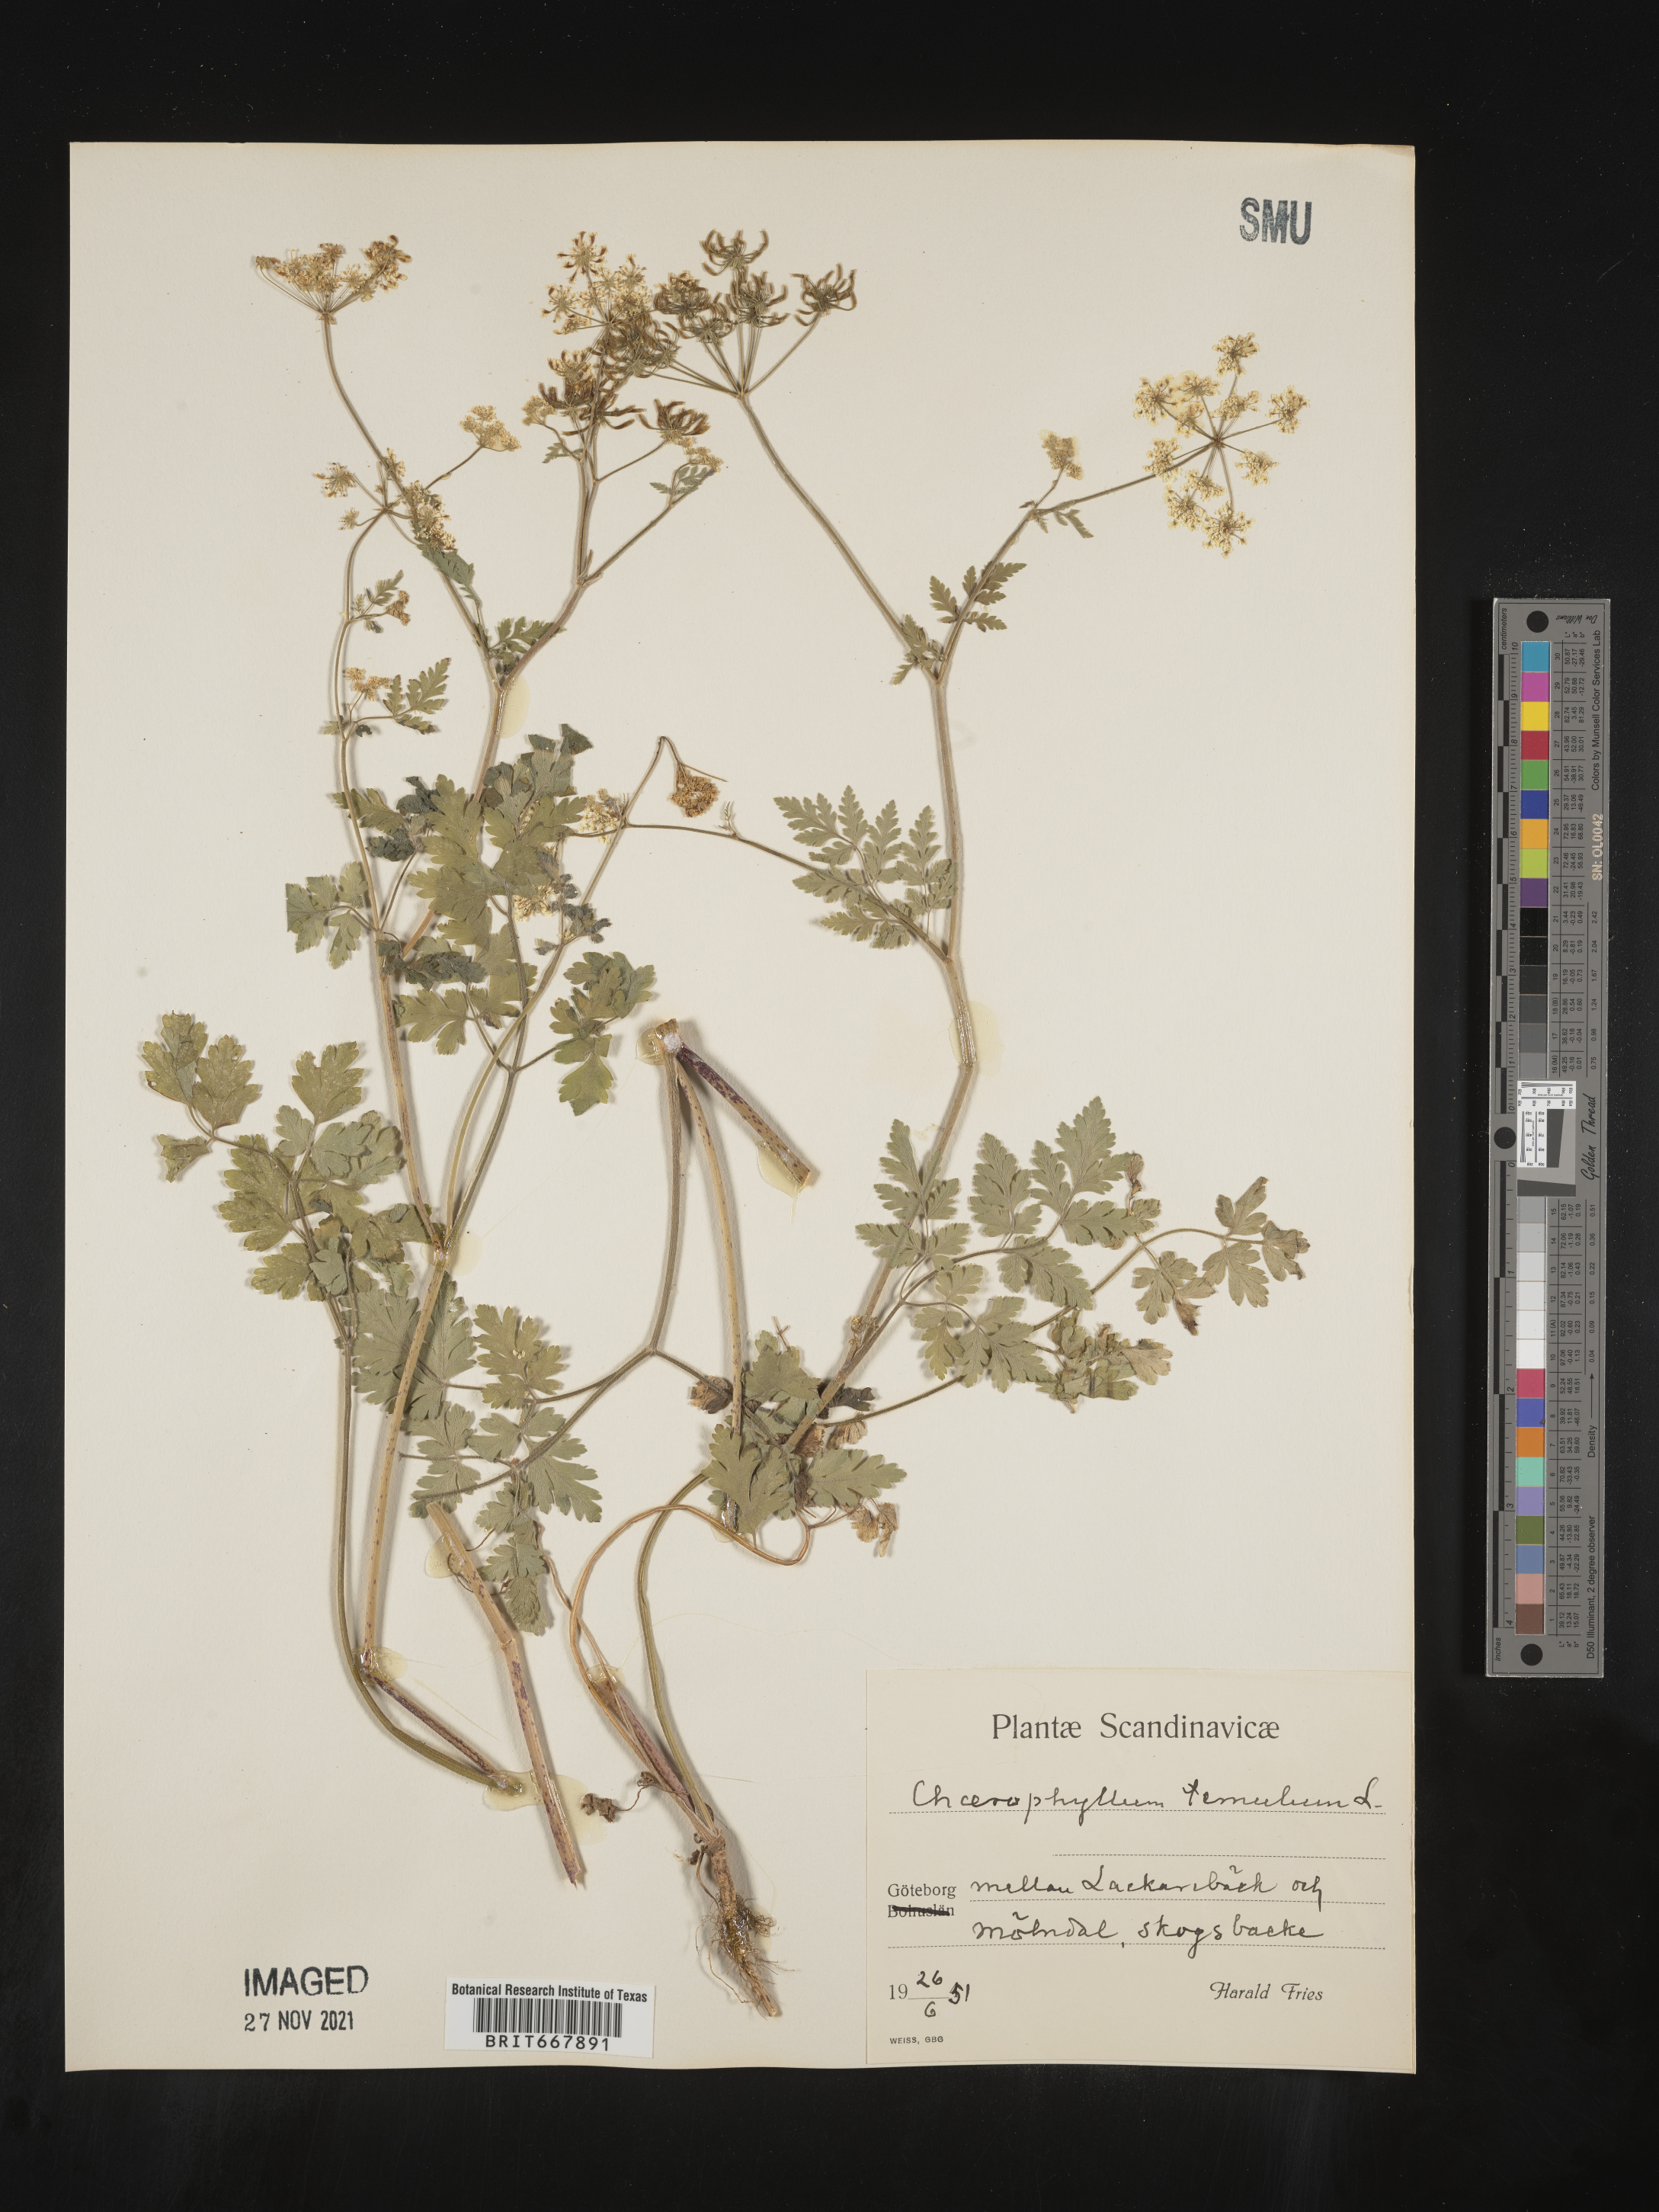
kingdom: Plantae
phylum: Tracheophyta
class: Magnoliopsida
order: Apiales
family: Apiaceae
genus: Chaerophyllum
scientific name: Chaerophyllum
